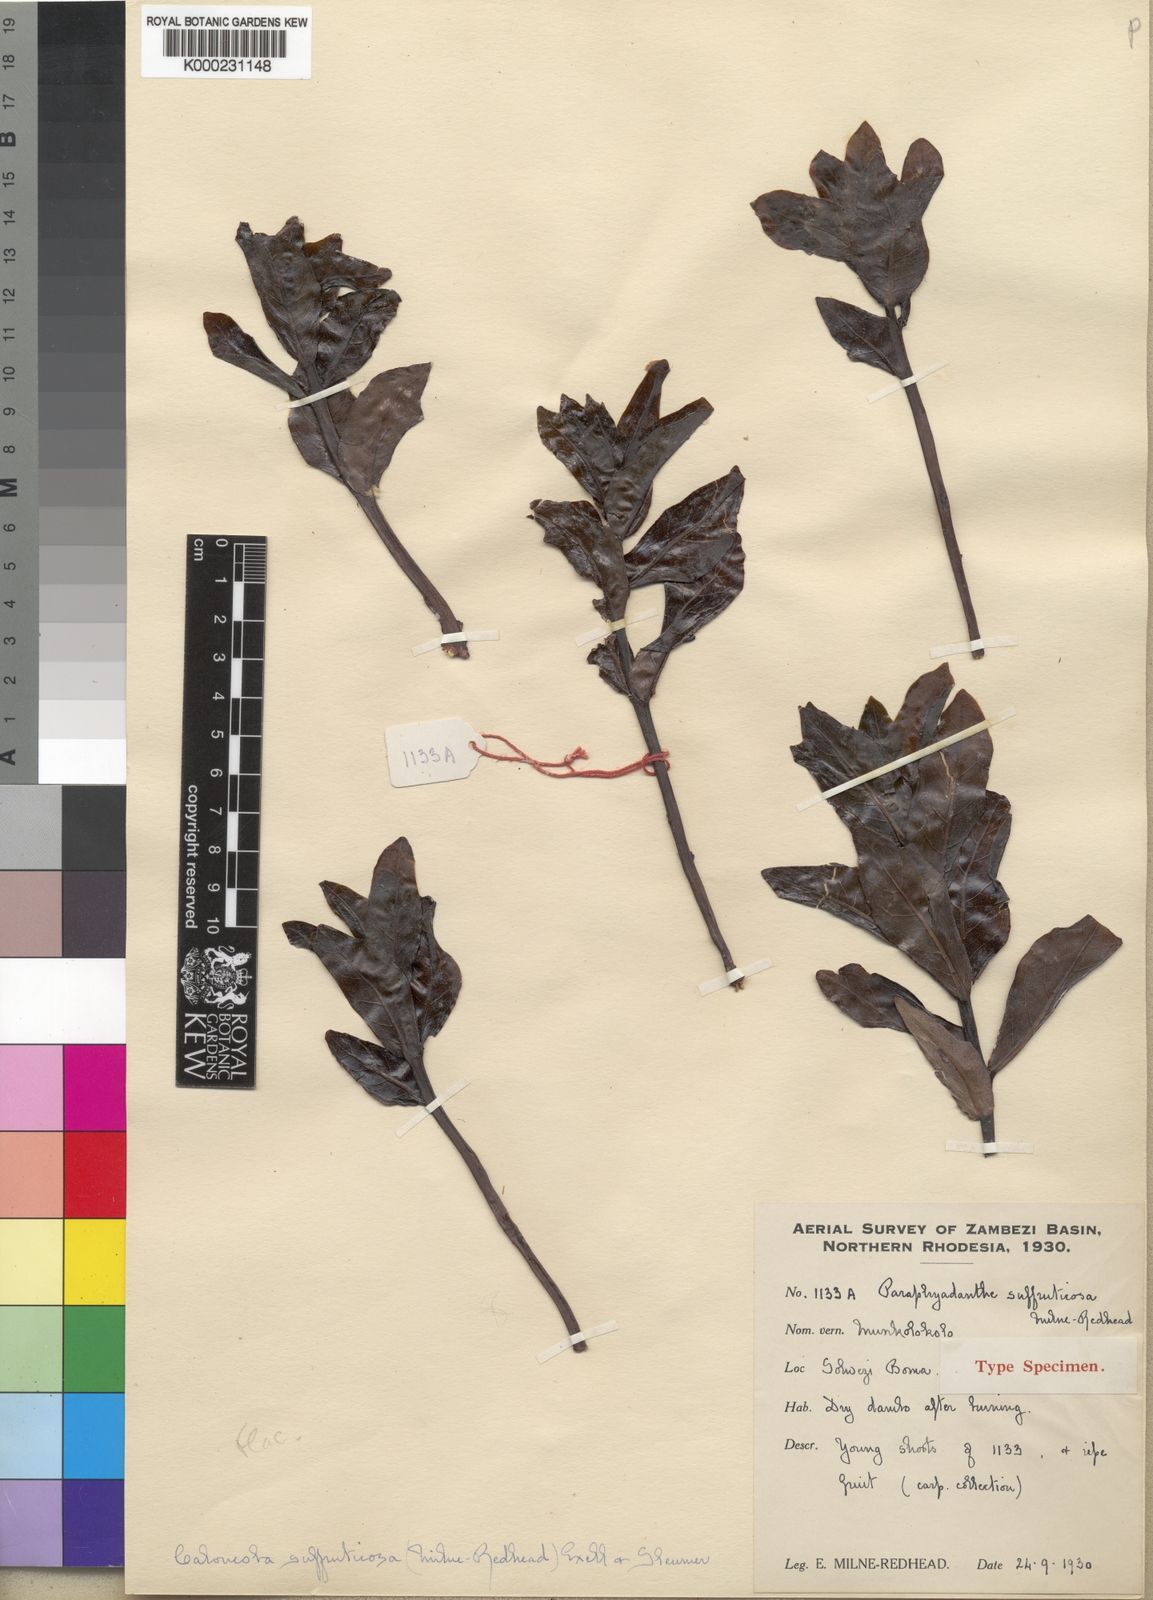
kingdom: Plantae
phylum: Tracheophyta
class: Magnoliopsida
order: Malpighiales
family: Achariaceae
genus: Caloncoba
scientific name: Caloncoba suffruticosa
